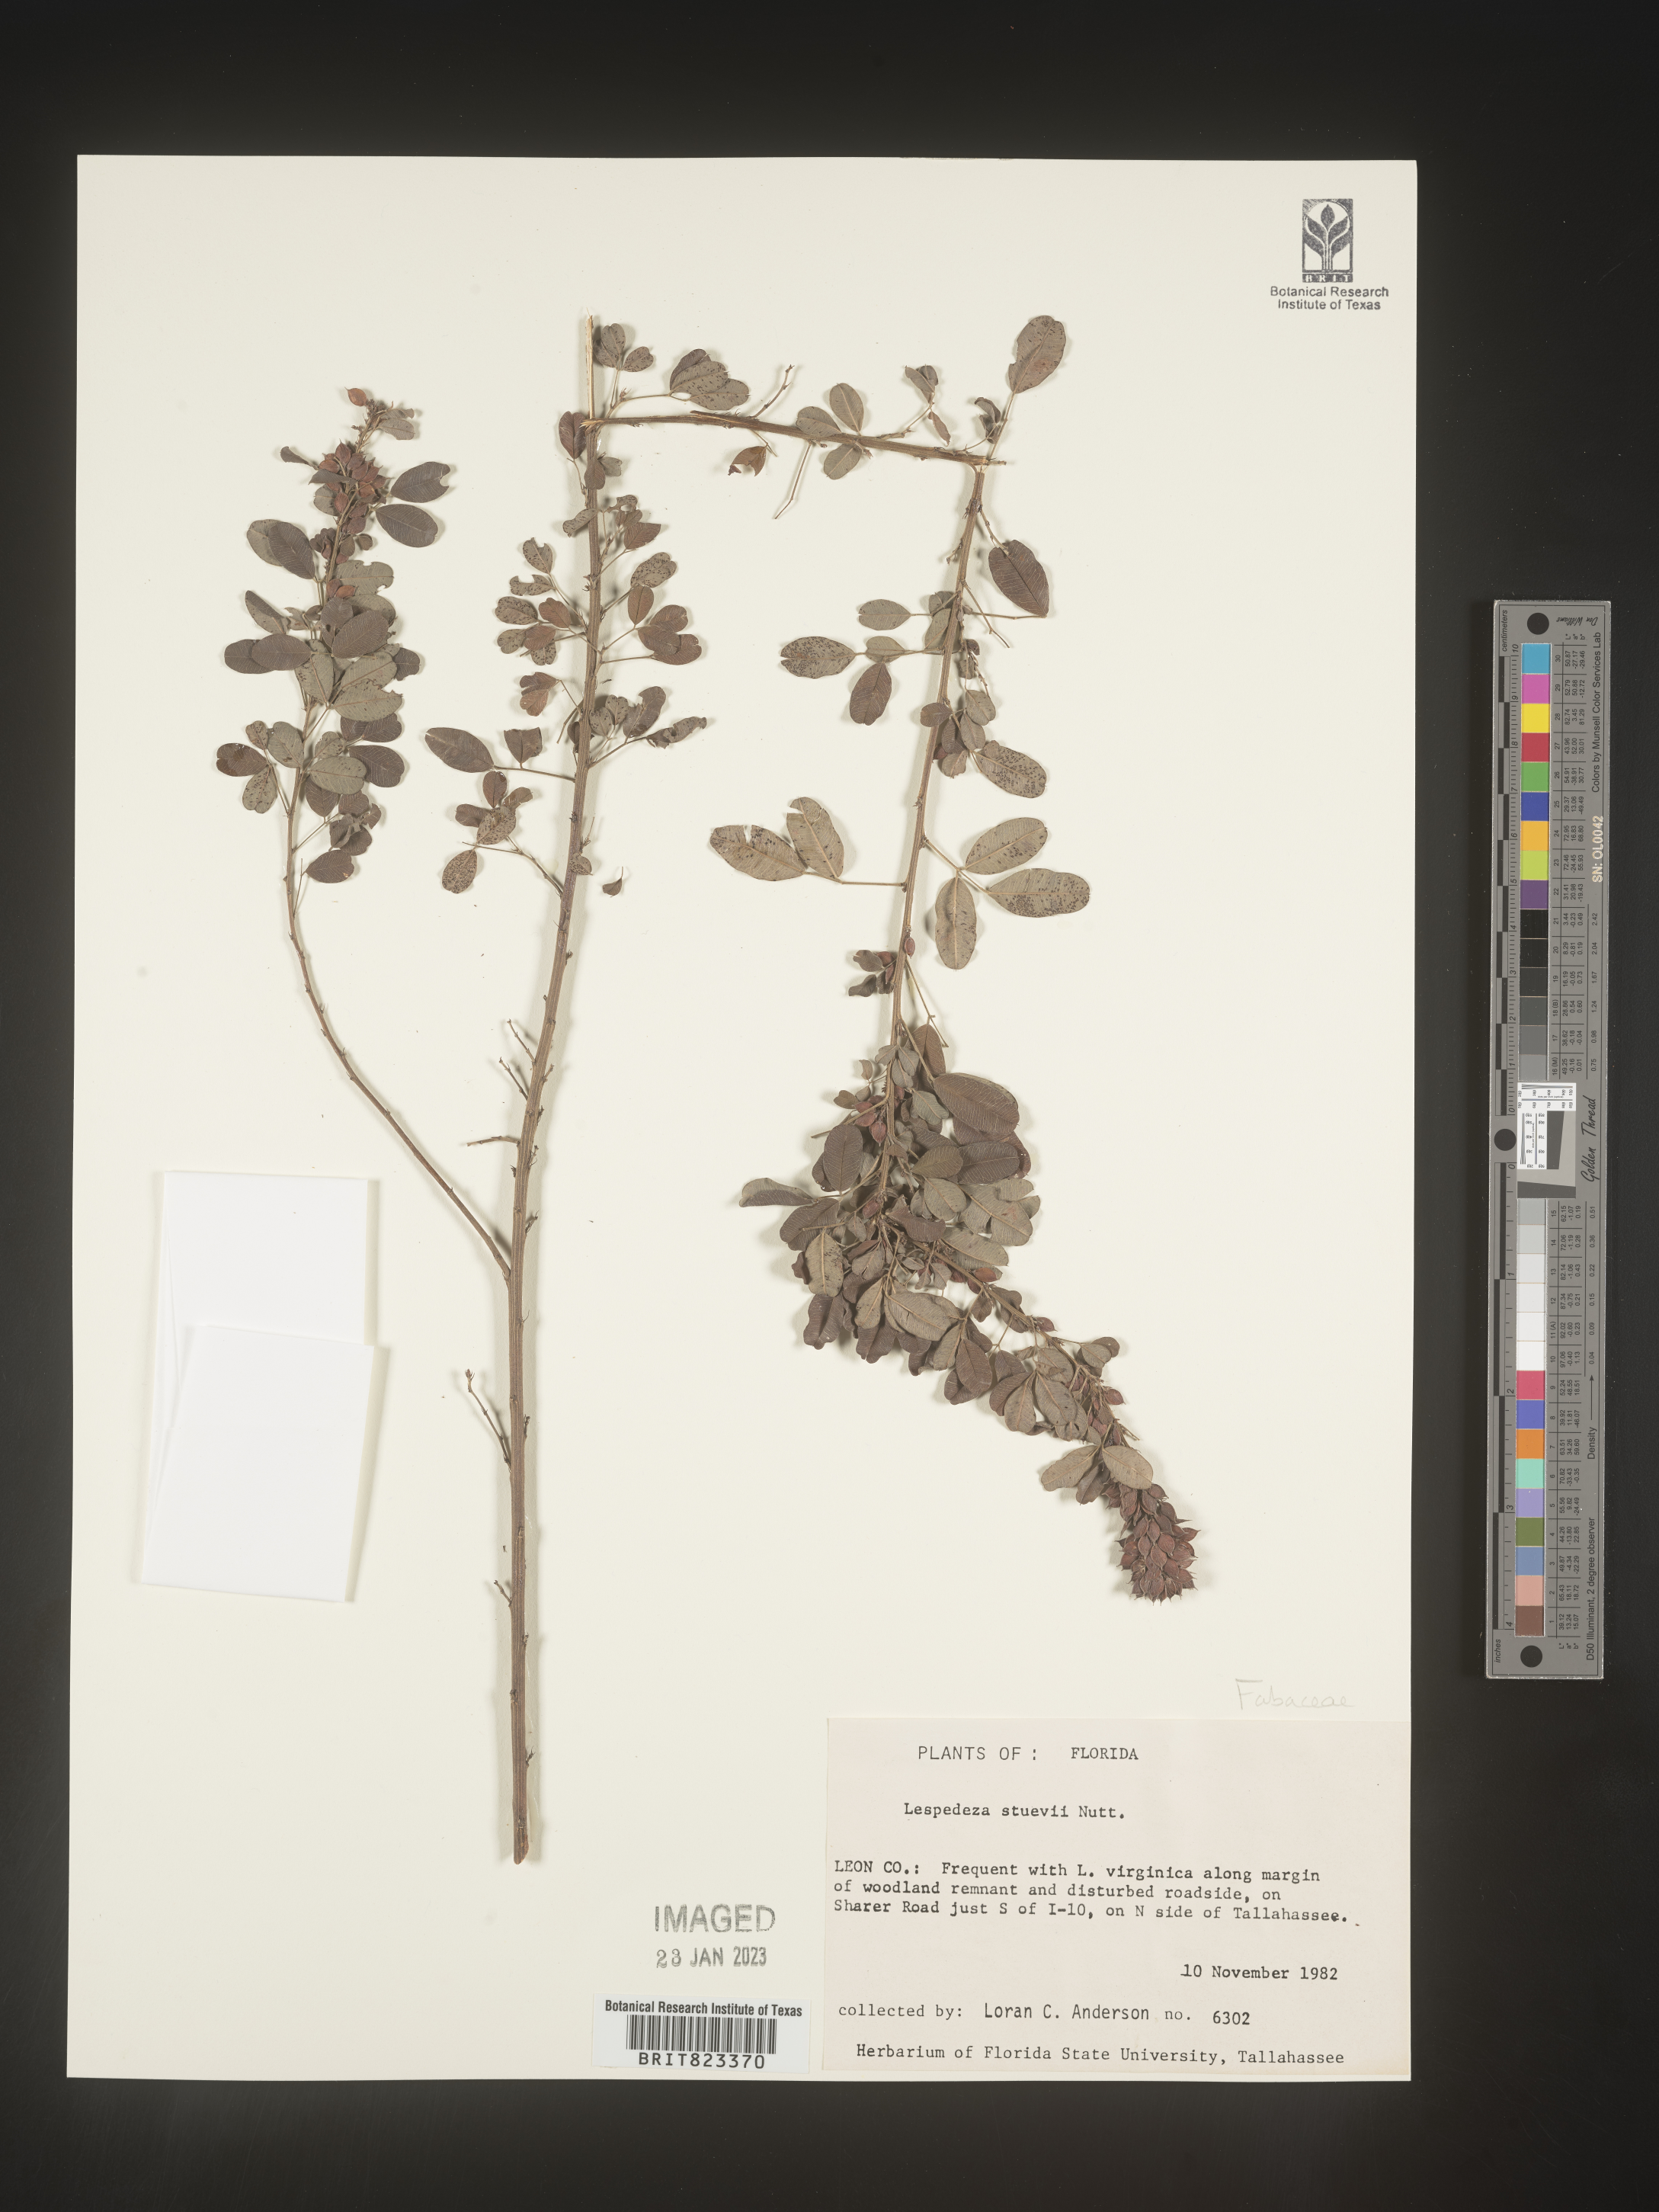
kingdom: Plantae
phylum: Tracheophyta
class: Magnoliopsida
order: Fabales
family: Fabaceae
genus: Lespedeza
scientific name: Lespedeza stuevei
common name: Tall bush-clover
